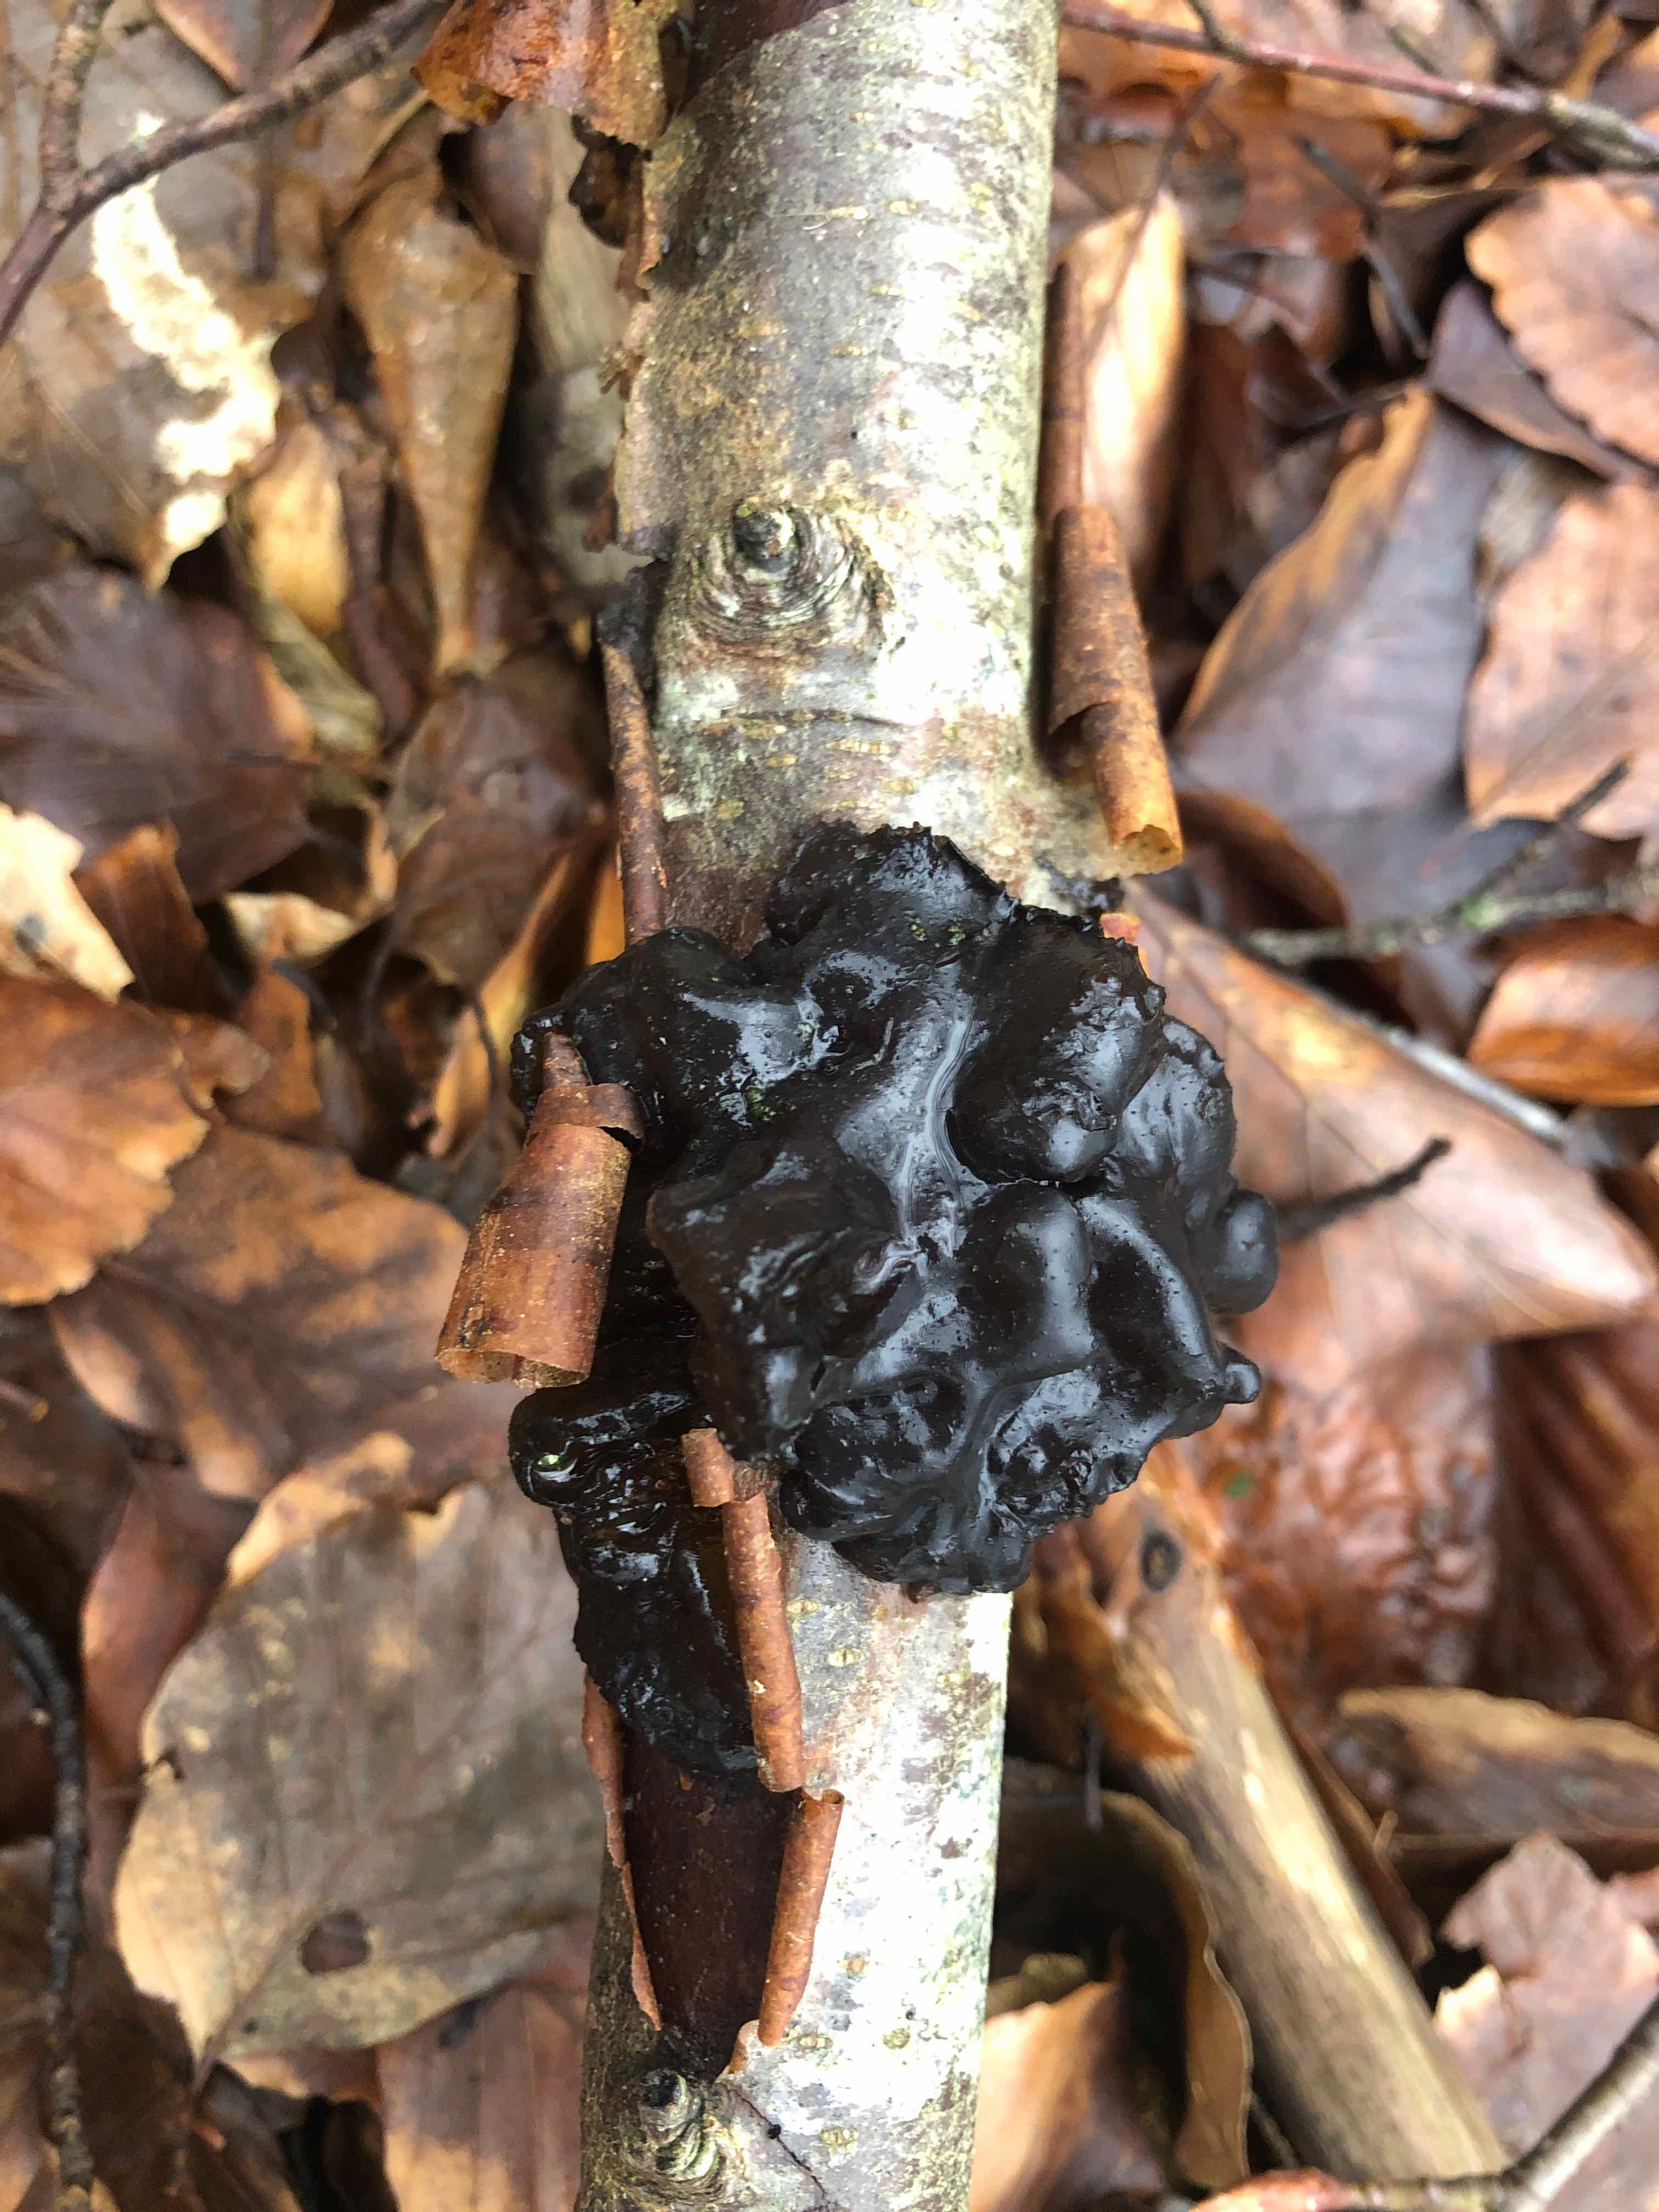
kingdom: Fungi
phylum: Basidiomycota
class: Agaricomycetes
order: Auriculariales
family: Auriculariaceae
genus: Exidia
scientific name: Exidia nigricans
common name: almindelig bævretop
